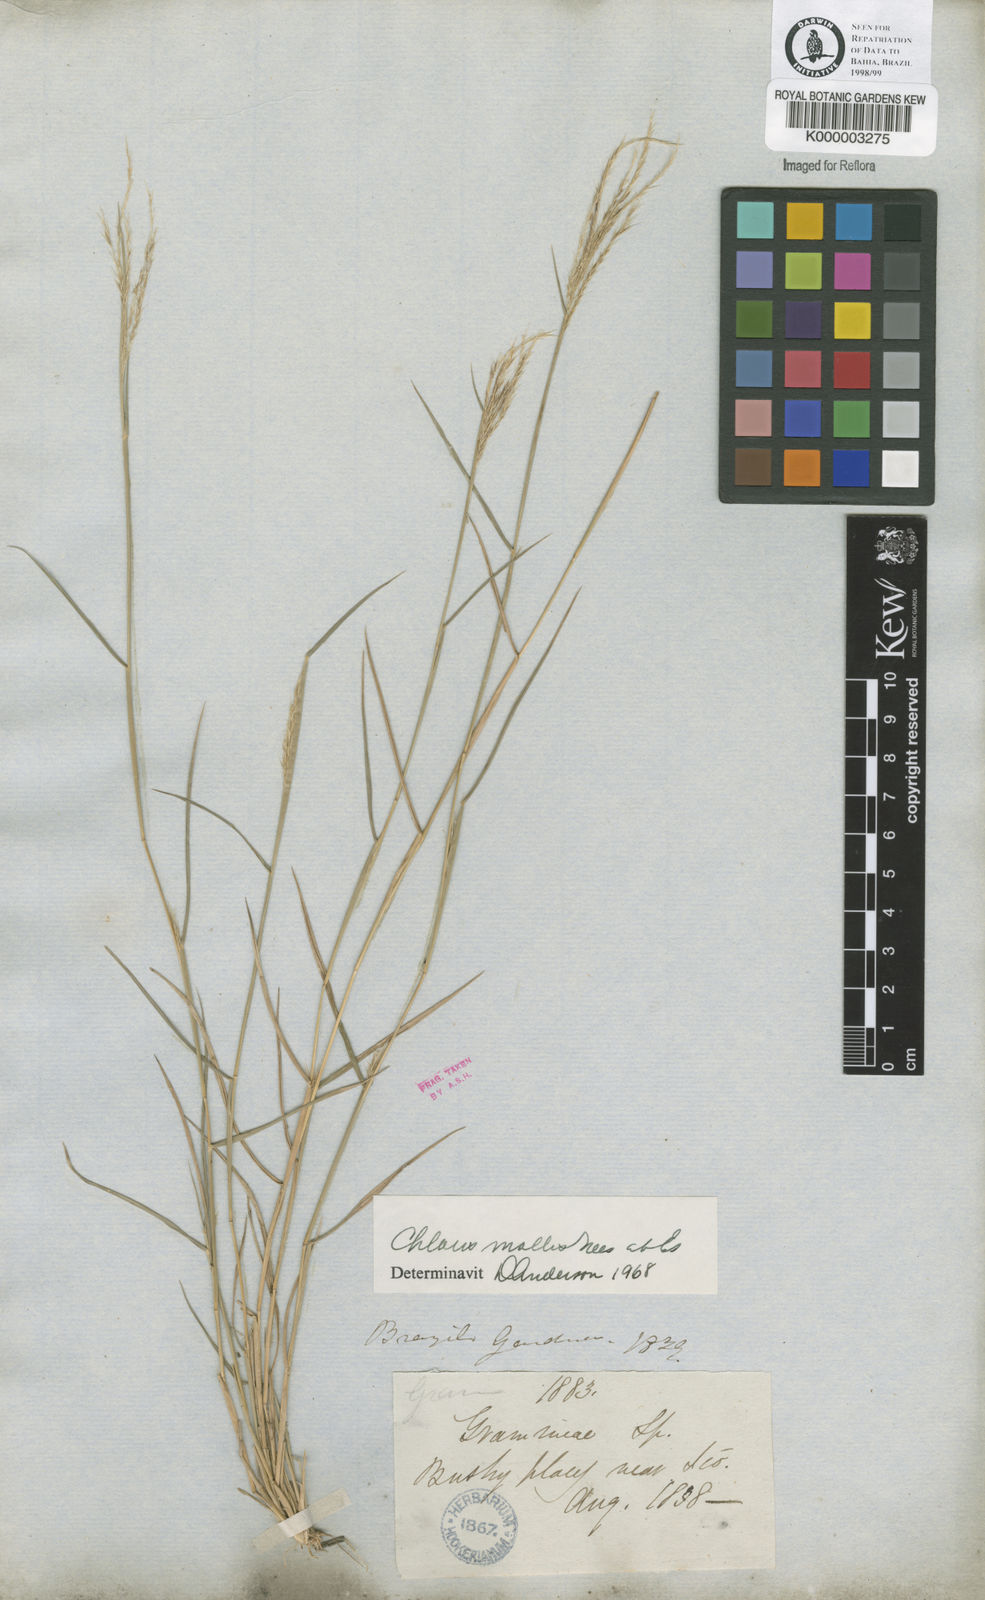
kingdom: Plantae
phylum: Tracheophyta
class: Liliopsida
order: Poales
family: Poaceae
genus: Leptochloa
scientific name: Leptochloa anisopoda
